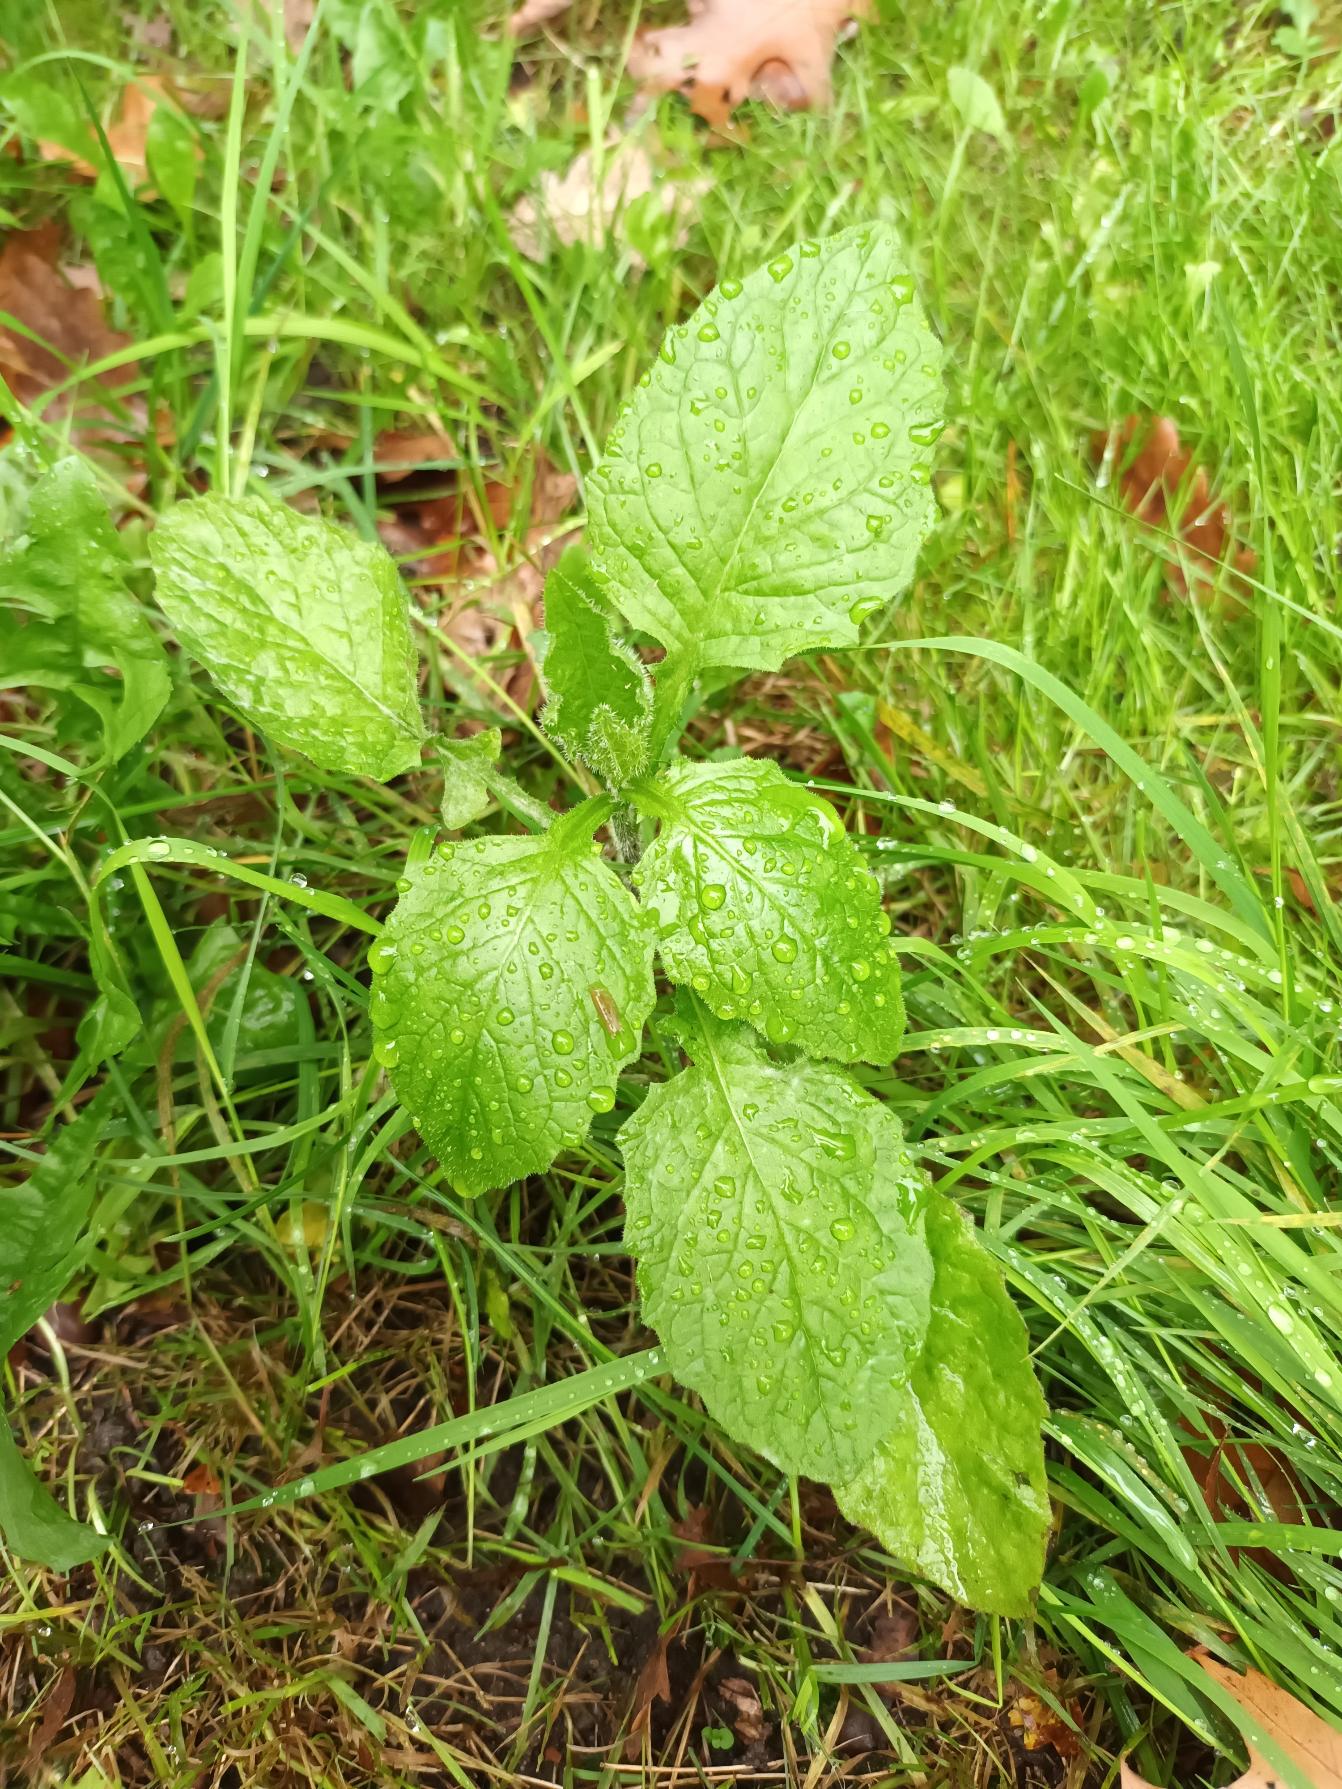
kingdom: Plantae
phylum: Tracheophyta
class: Magnoliopsida
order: Asterales
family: Asteraceae
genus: Lapsana
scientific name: Lapsana communis
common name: Haremad
